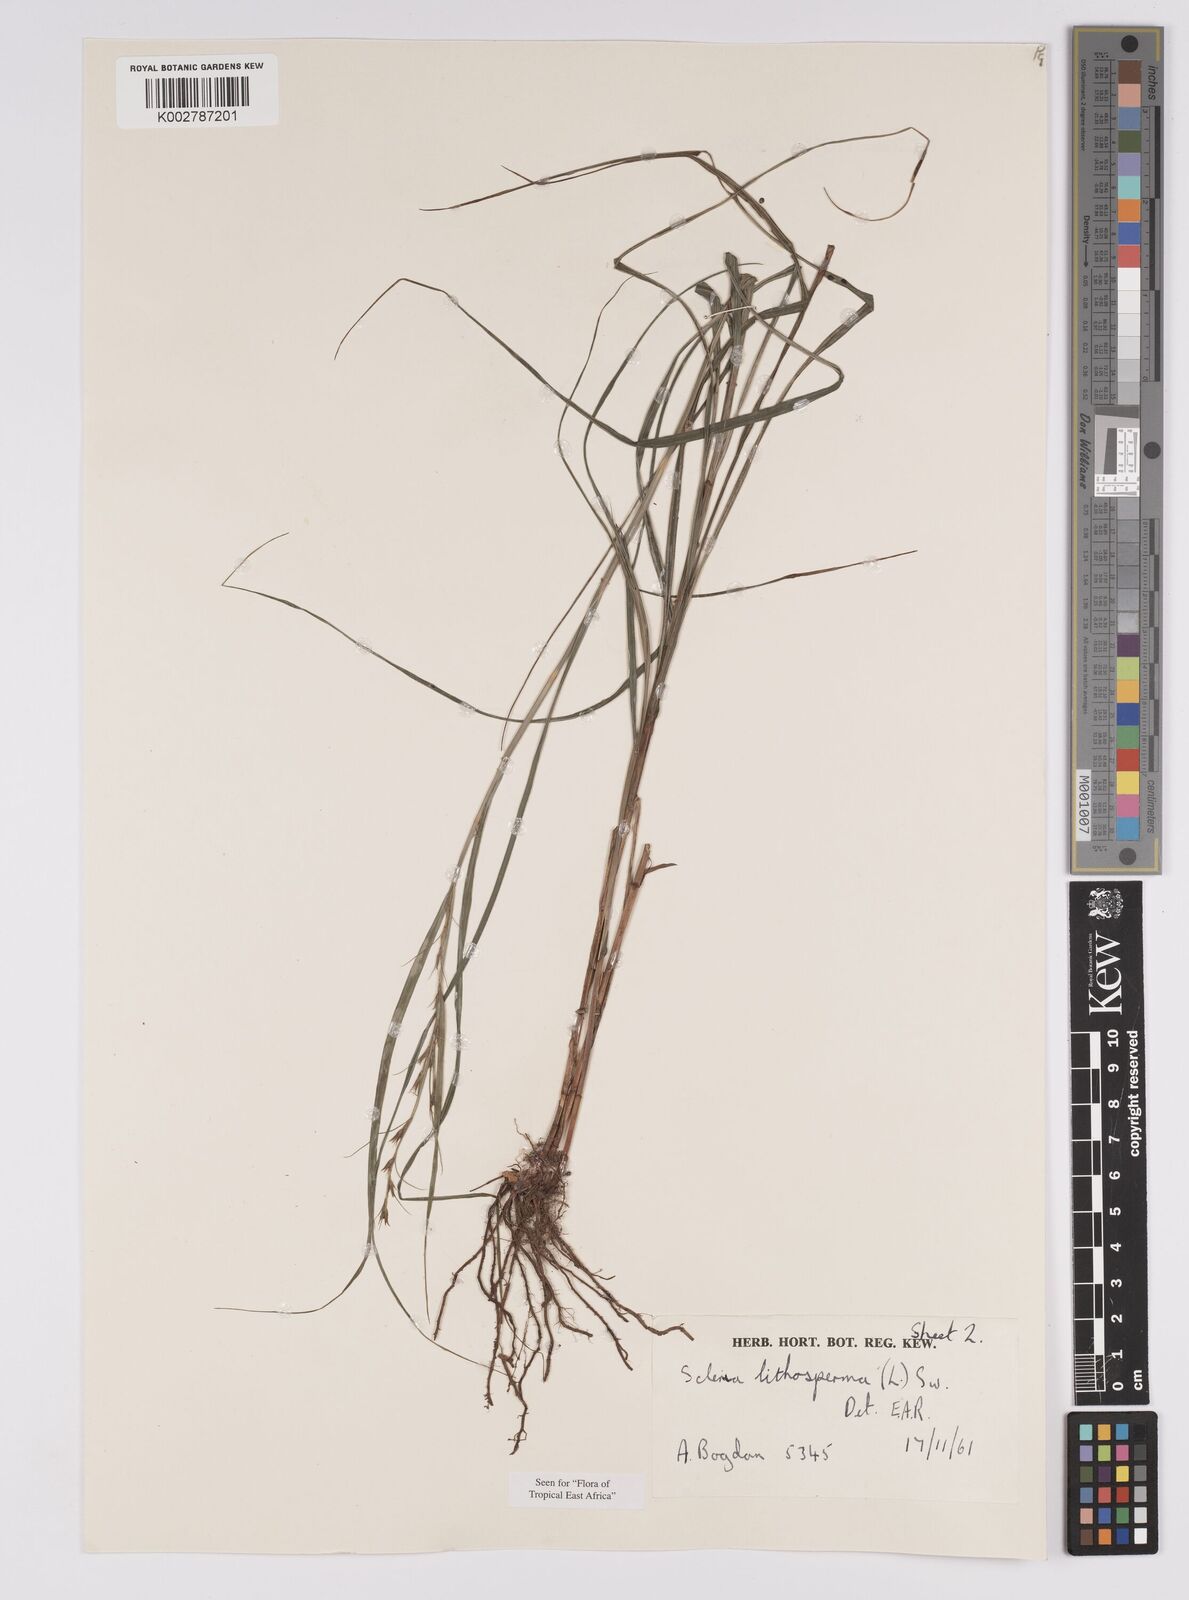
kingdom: Plantae
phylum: Tracheophyta
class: Liliopsida
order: Poales
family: Cyperaceae
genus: Scleria
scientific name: Scleria lithosperma
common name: Florida keys nut-rush
